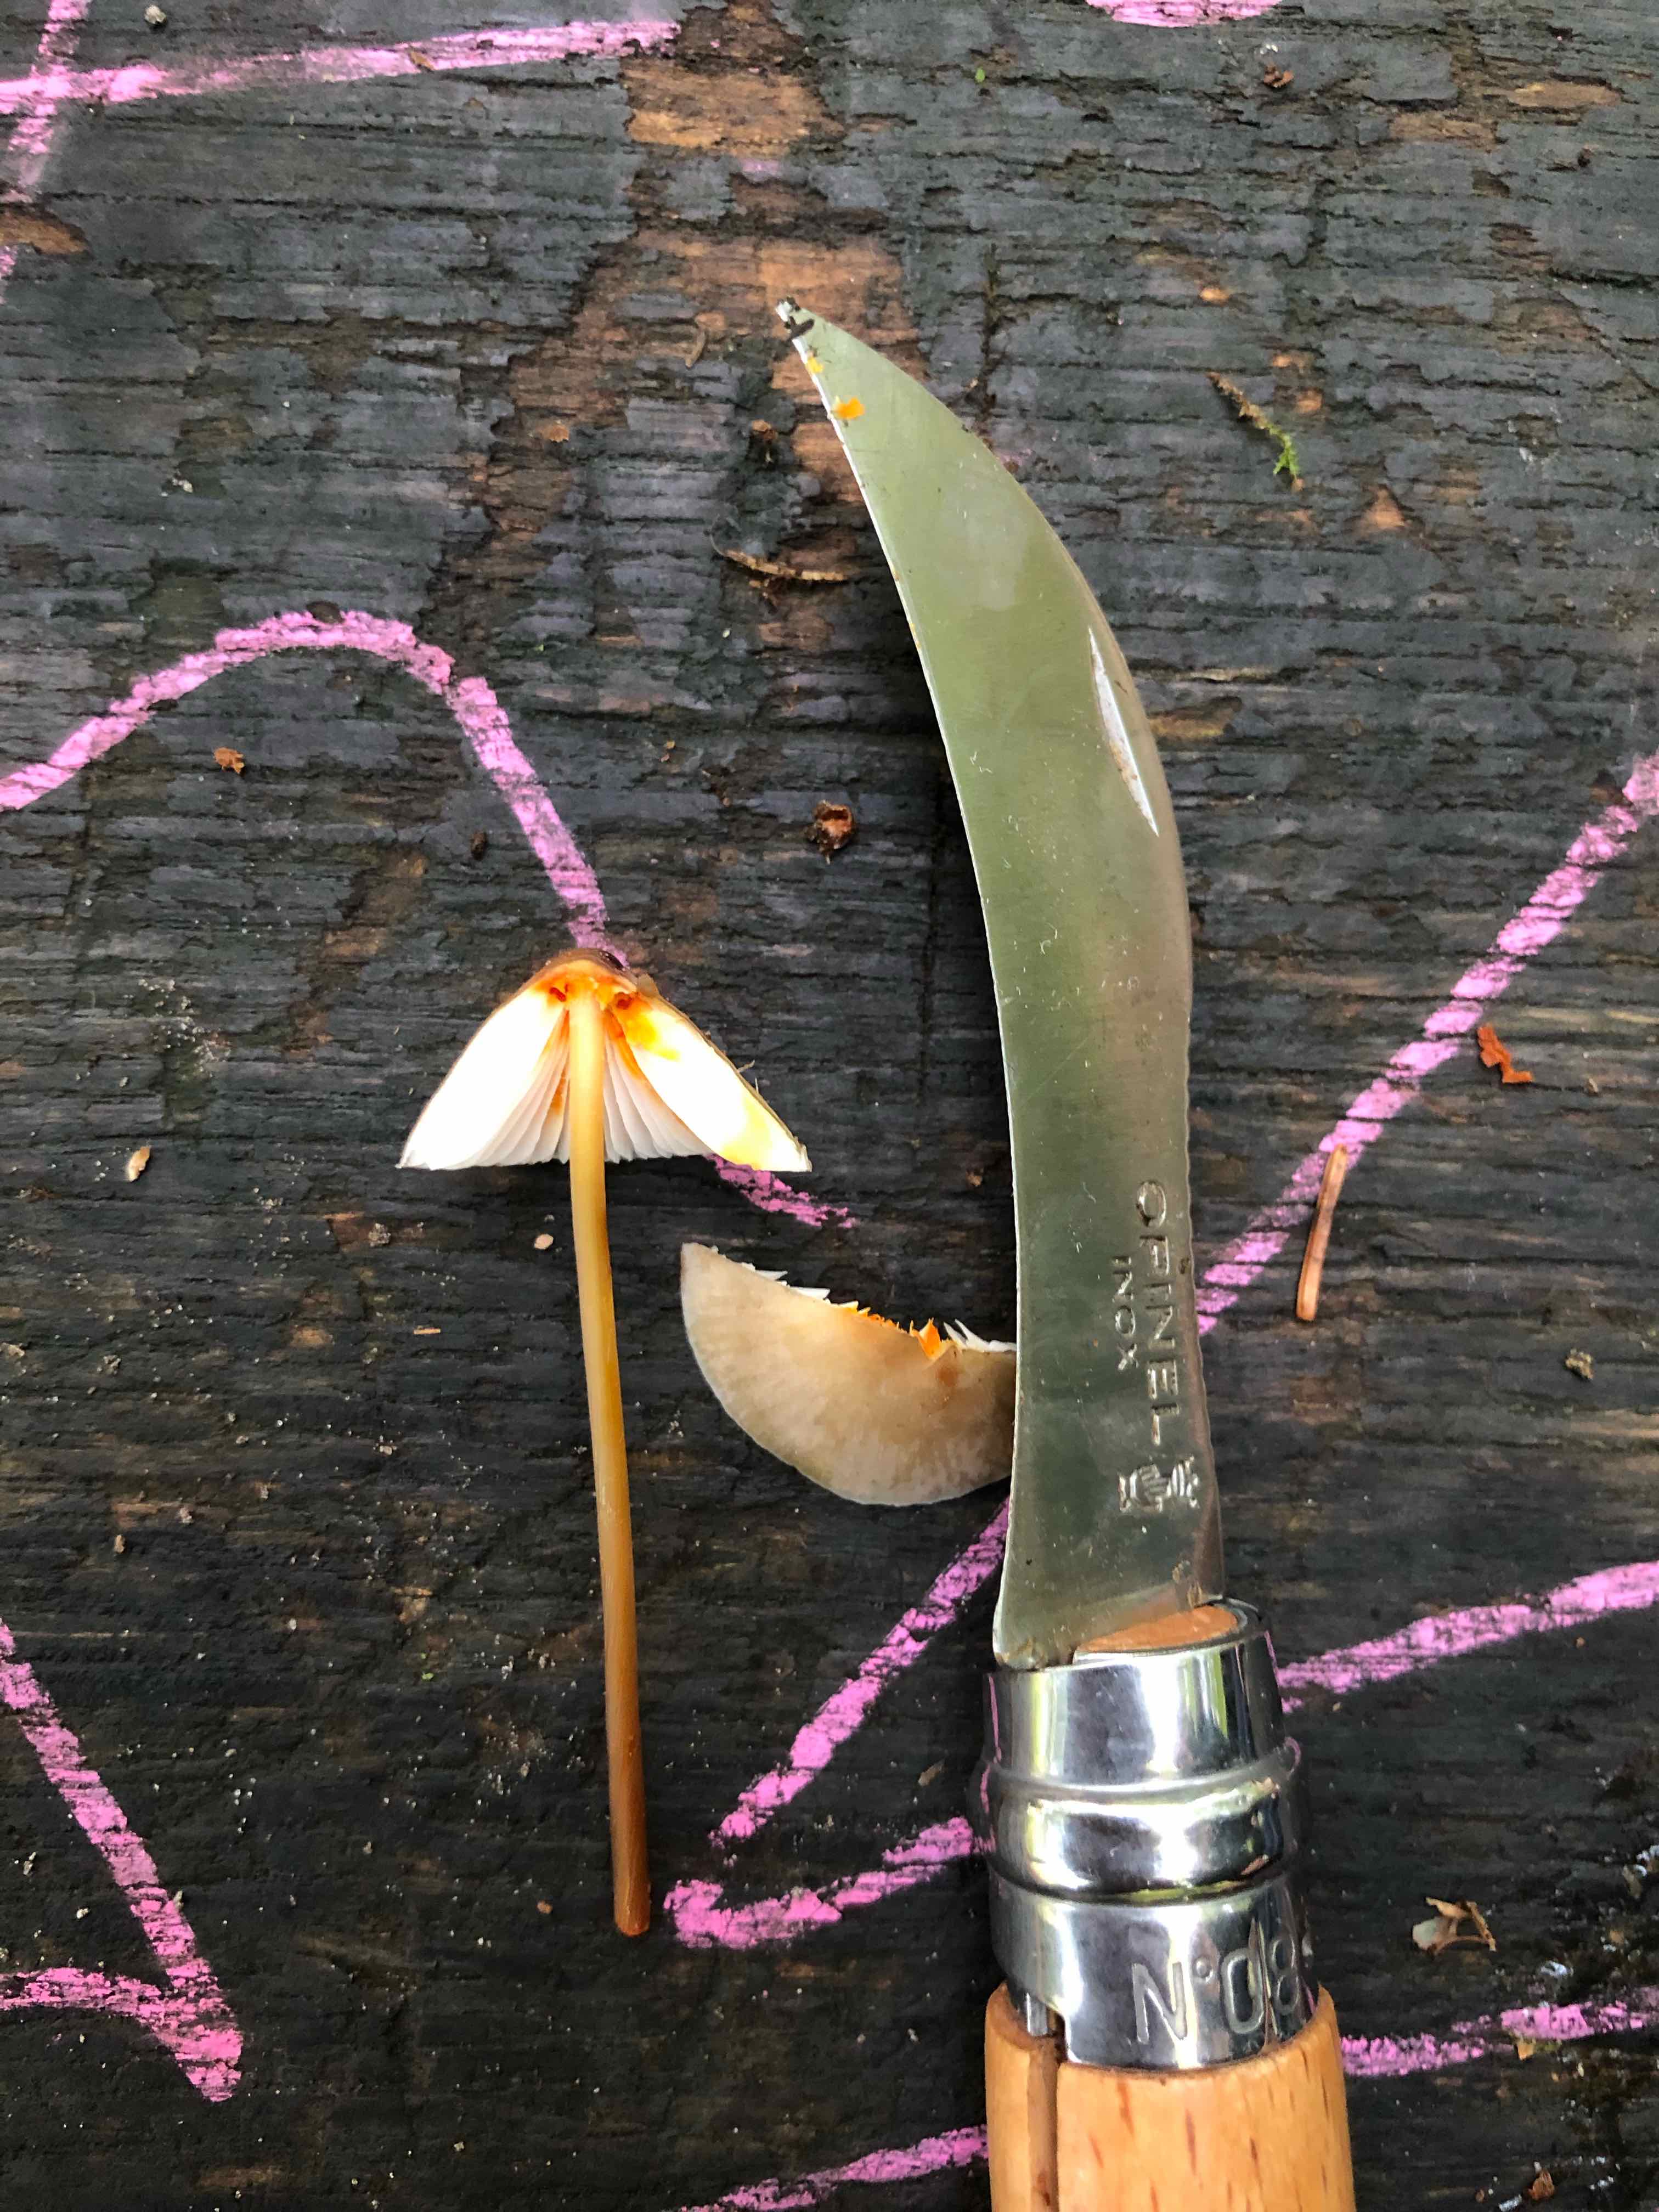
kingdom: Fungi
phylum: Basidiomycota
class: Agaricomycetes
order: Agaricales
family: Mycenaceae
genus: Mycena
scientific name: Mycena crocata
